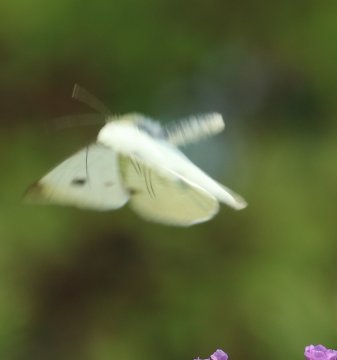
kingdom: Animalia
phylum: Arthropoda
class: Insecta
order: Lepidoptera
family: Pieridae
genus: Pieris
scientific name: Pieris rapae
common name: Cabbage White
